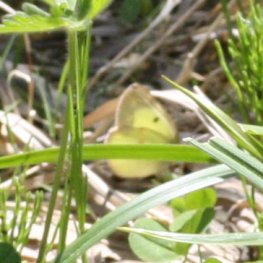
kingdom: Animalia
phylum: Arthropoda
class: Insecta
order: Lepidoptera
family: Pieridae
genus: Colias
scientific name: Colias philodice
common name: Clouded Sulphur
